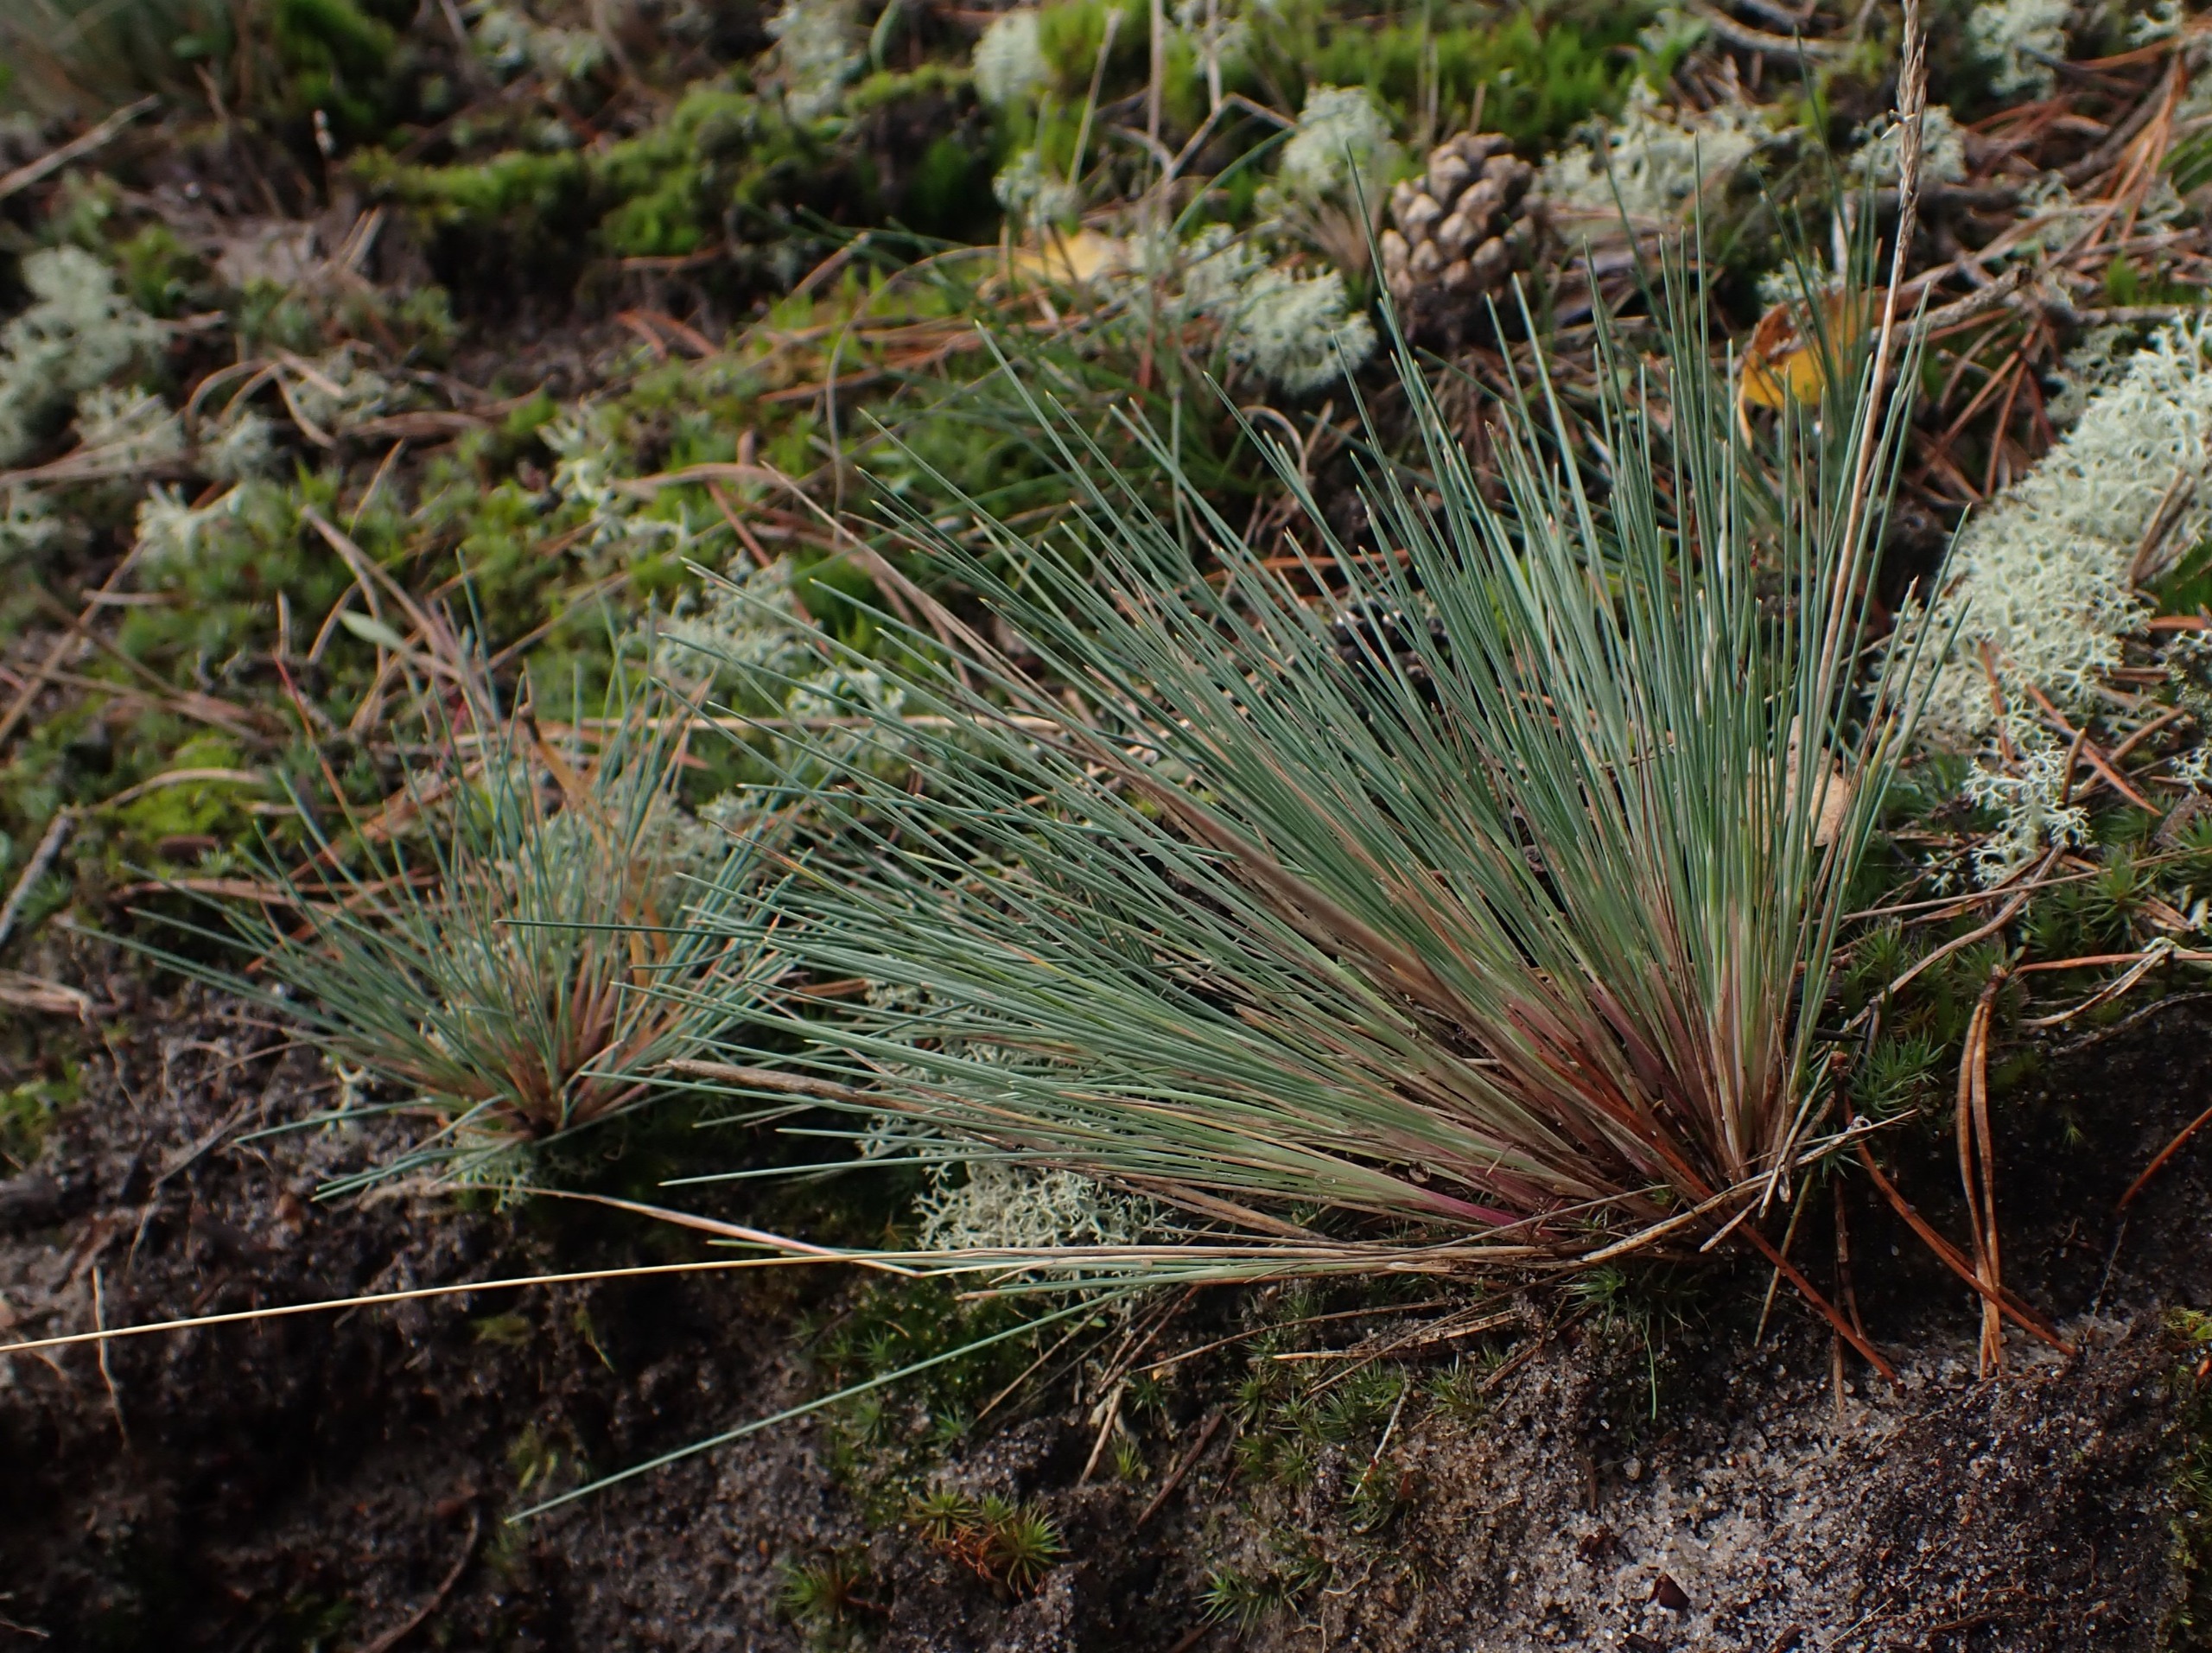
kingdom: Plantae
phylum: Tracheophyta
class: Liliopsida
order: Poales
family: Poaceae
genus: Corynephorus
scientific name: Corynephorus canescens
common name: Sandskæg
